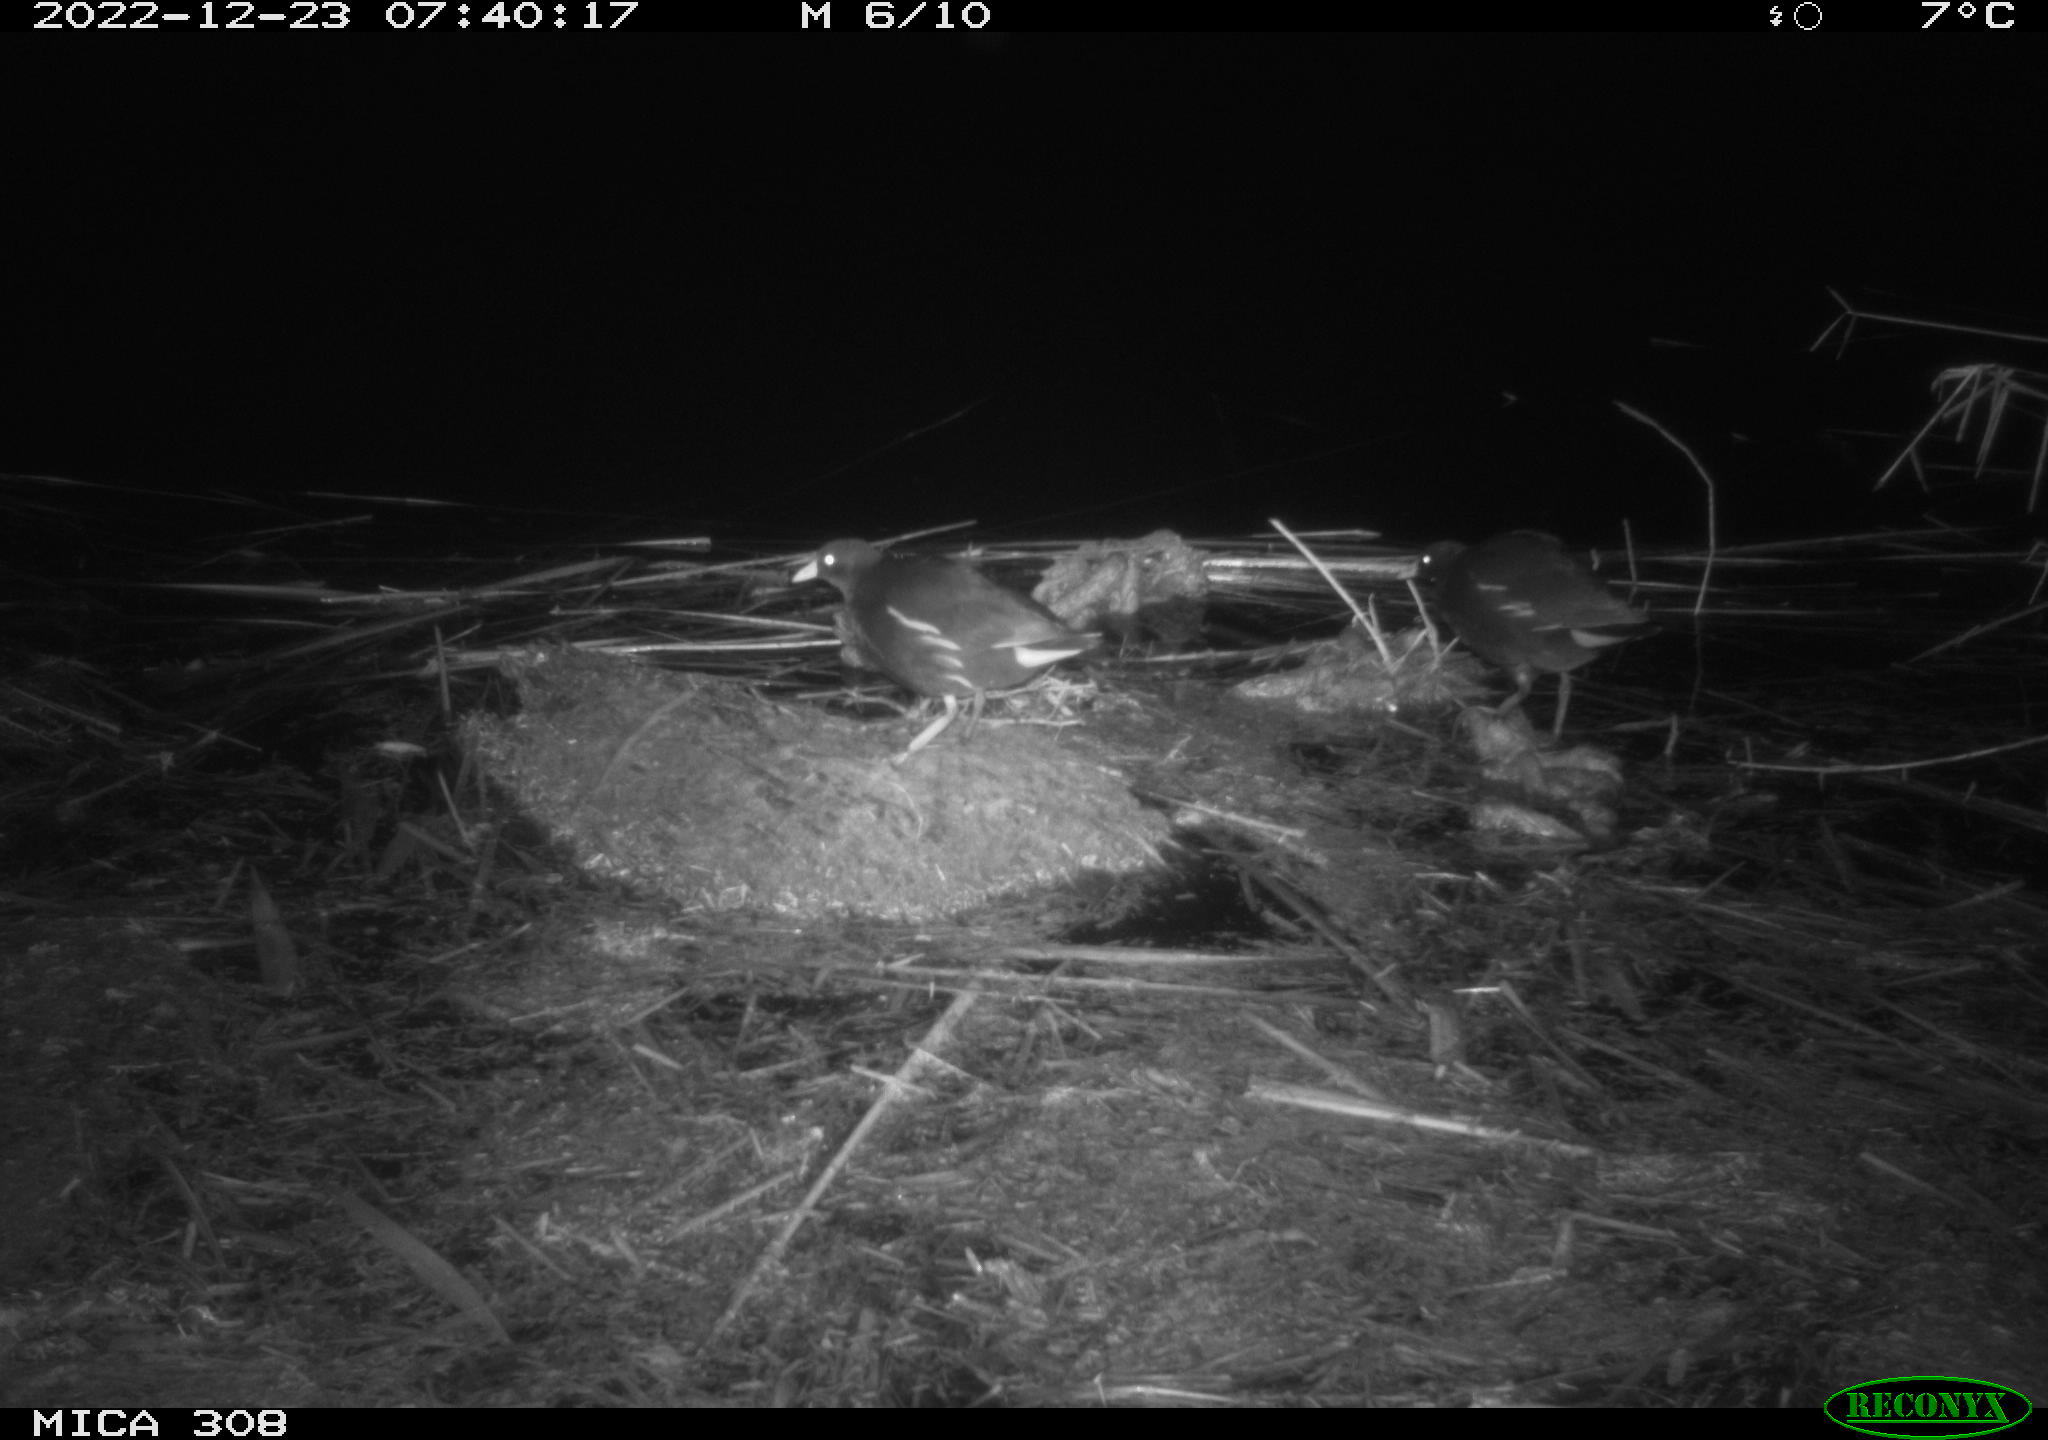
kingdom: Animalia
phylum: Chordata
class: Aves
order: Gruiformes
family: Rallidae
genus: Gallinula
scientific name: Gallinula chloropus
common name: Common moorhen
